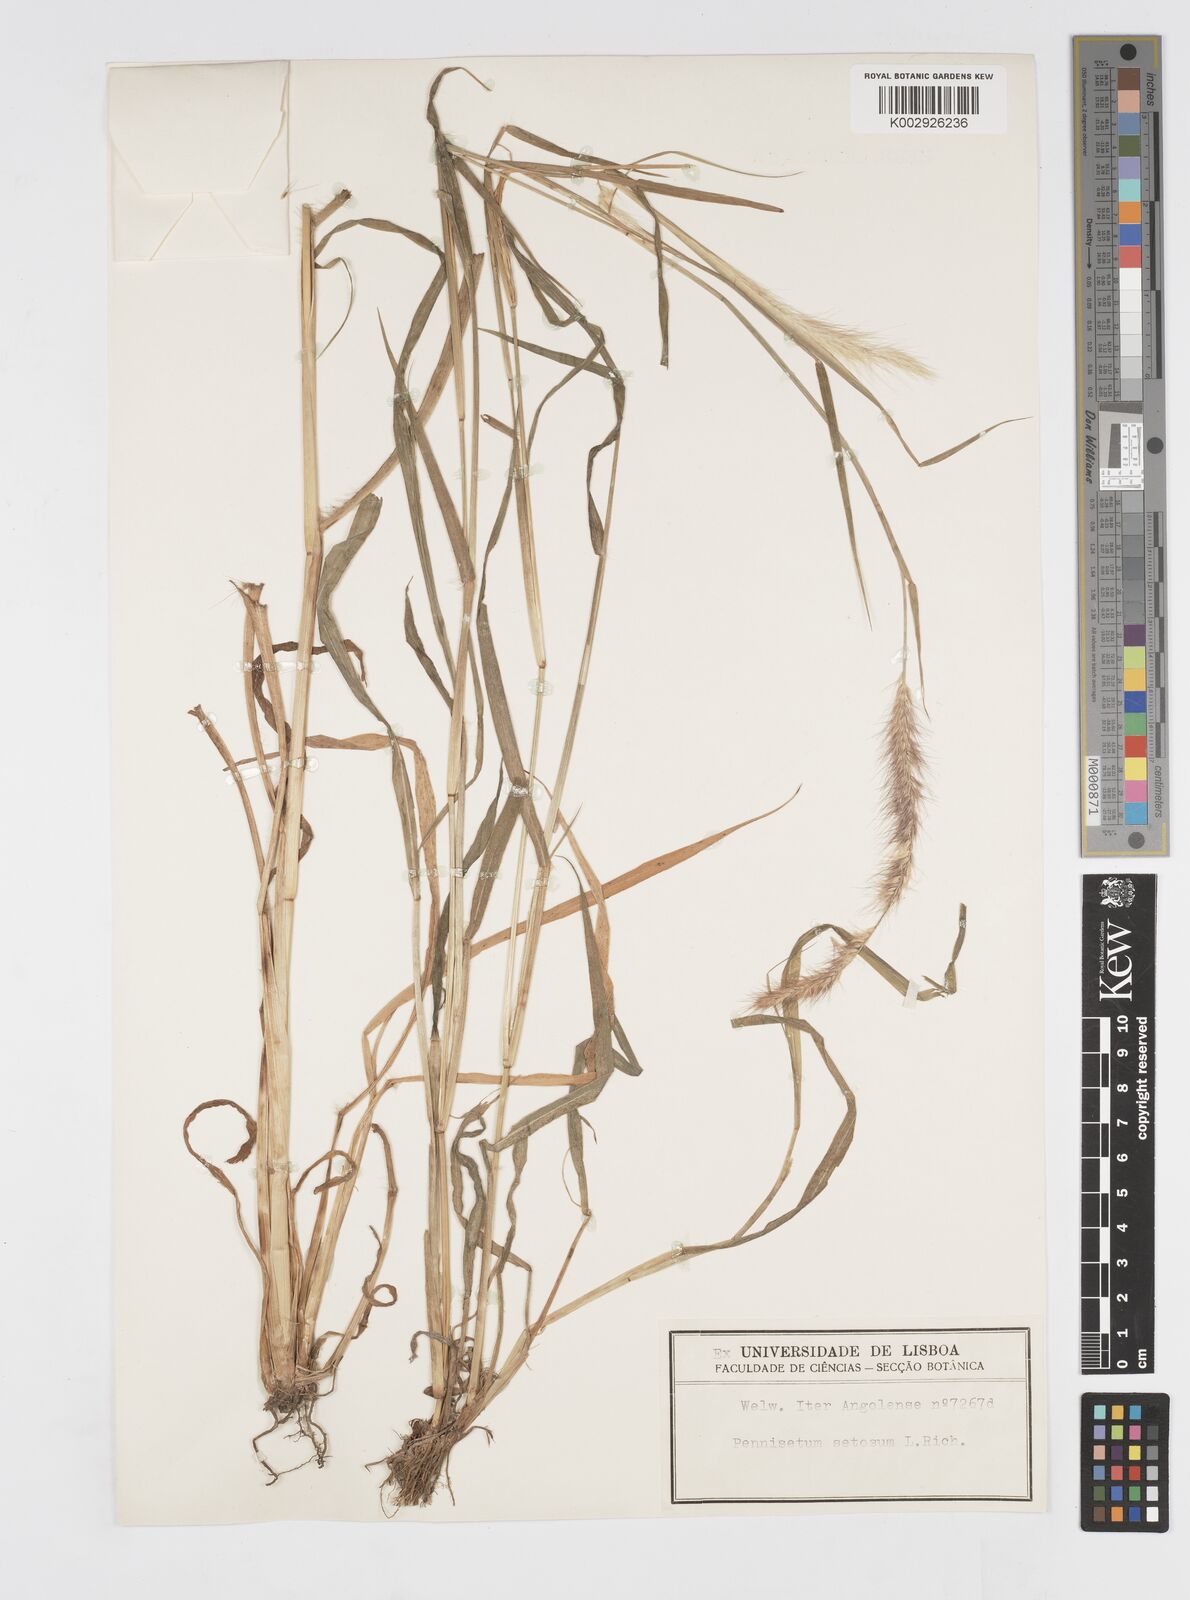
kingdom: Plantae
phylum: Tracheophyta
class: Liliopsida
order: Poales
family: Poaceae
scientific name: Poaceae
